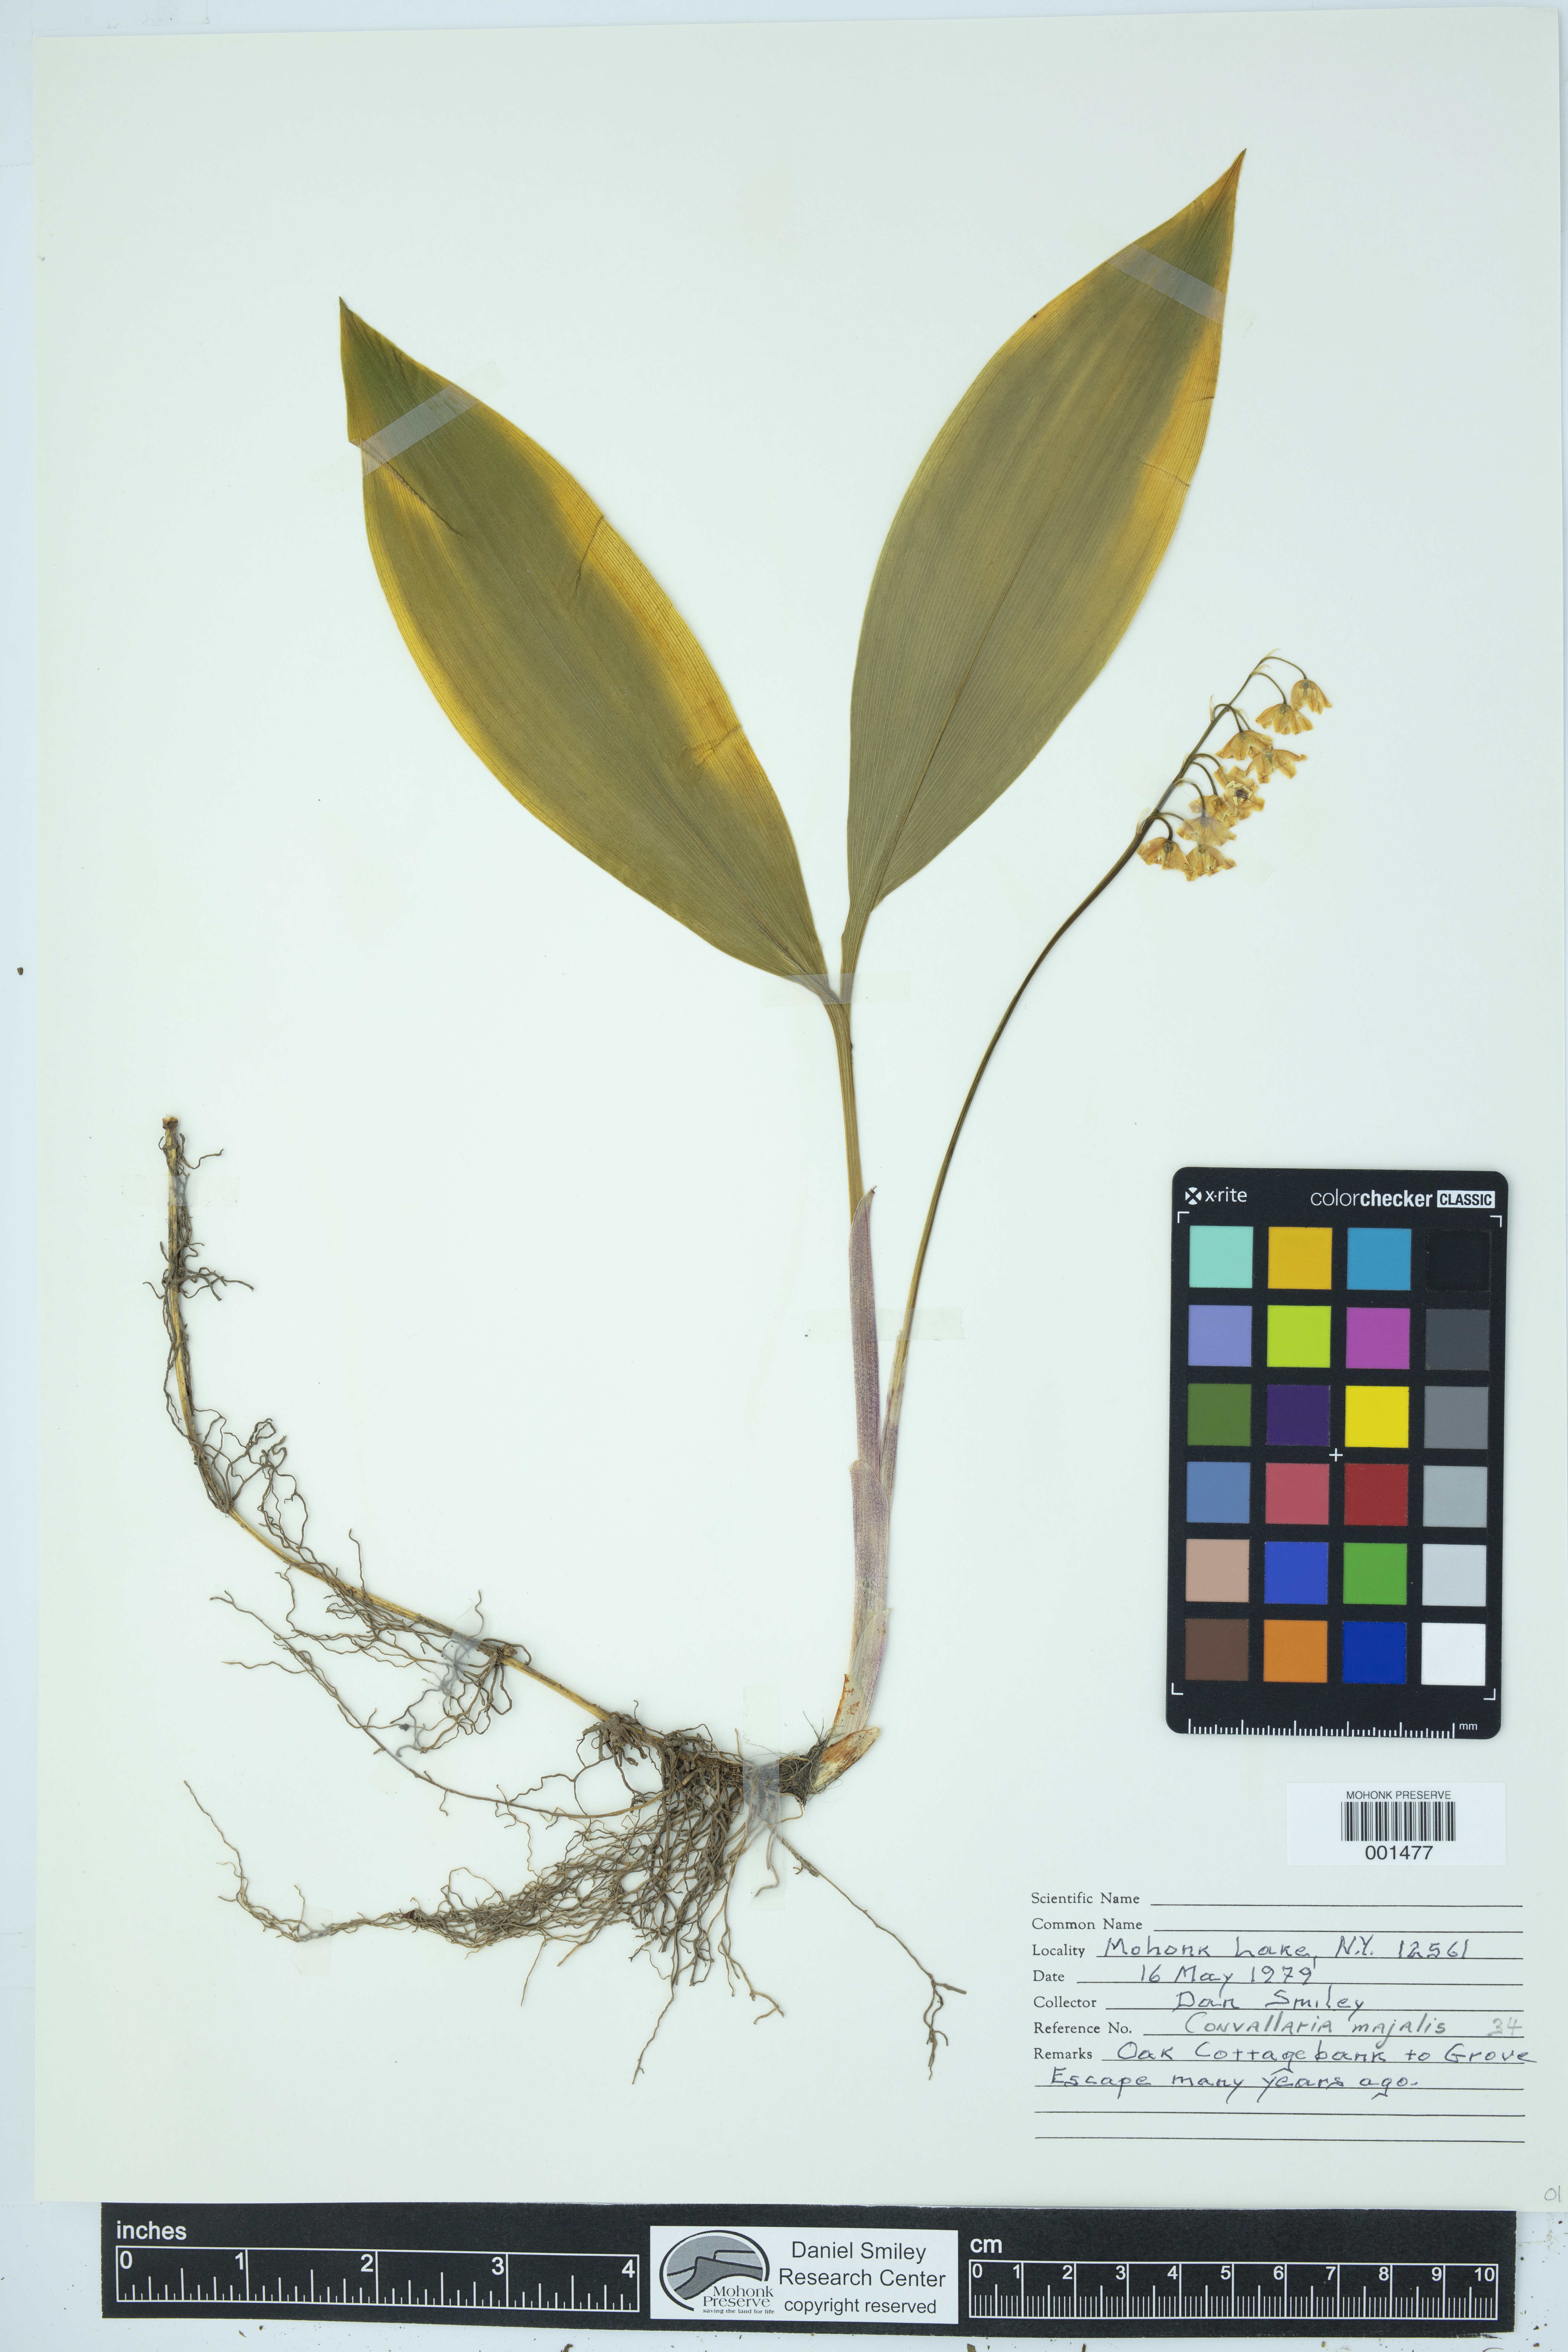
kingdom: Plantae
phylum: Tracheophyta
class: Liliopsida
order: Asparagales
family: Asparagaceae
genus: Convallaria
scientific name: Convallaria majalis
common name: Lily-of-the-valley
